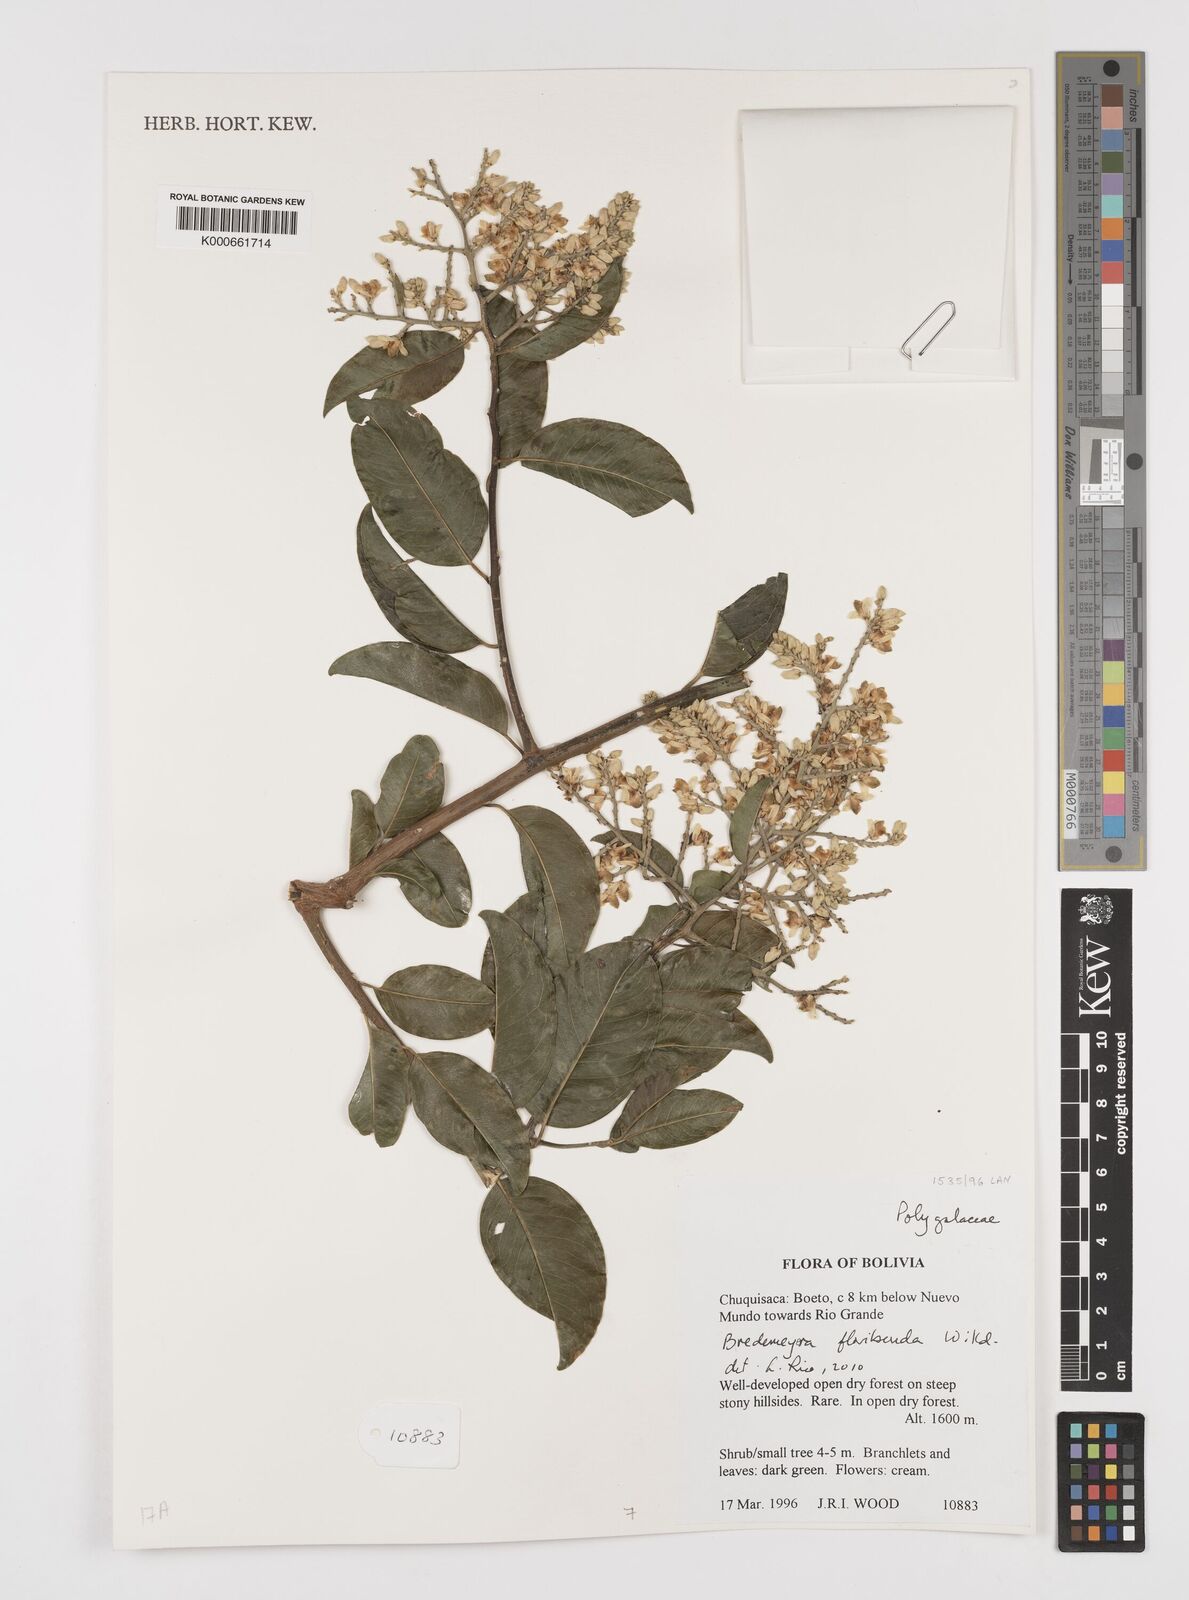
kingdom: Plantae
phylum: Tracheophyta
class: Magnoliopsida
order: Fabales
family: Polygalaceae
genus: Bredemeyera
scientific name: Bredemeyera floribunda
